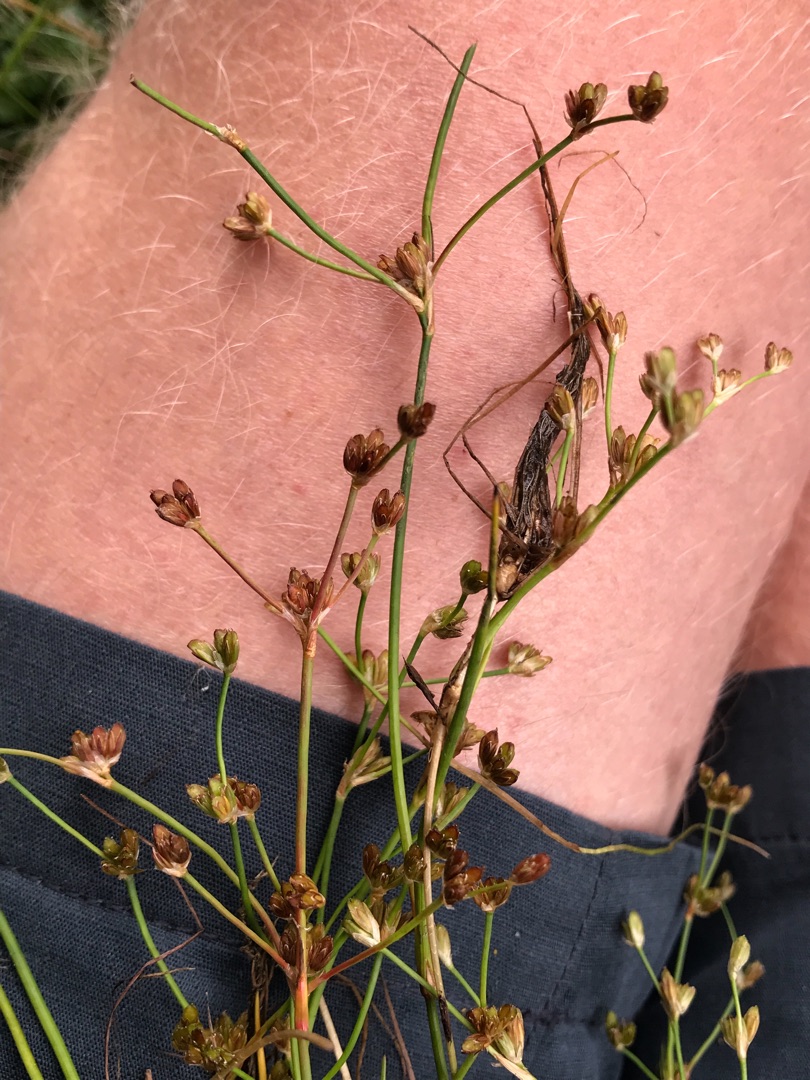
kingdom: Plantae
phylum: Tracheophyta
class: Liliopsida
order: Poales
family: Juncaceae
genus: Juncus
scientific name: Juncus bulbosus
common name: Liden siv
